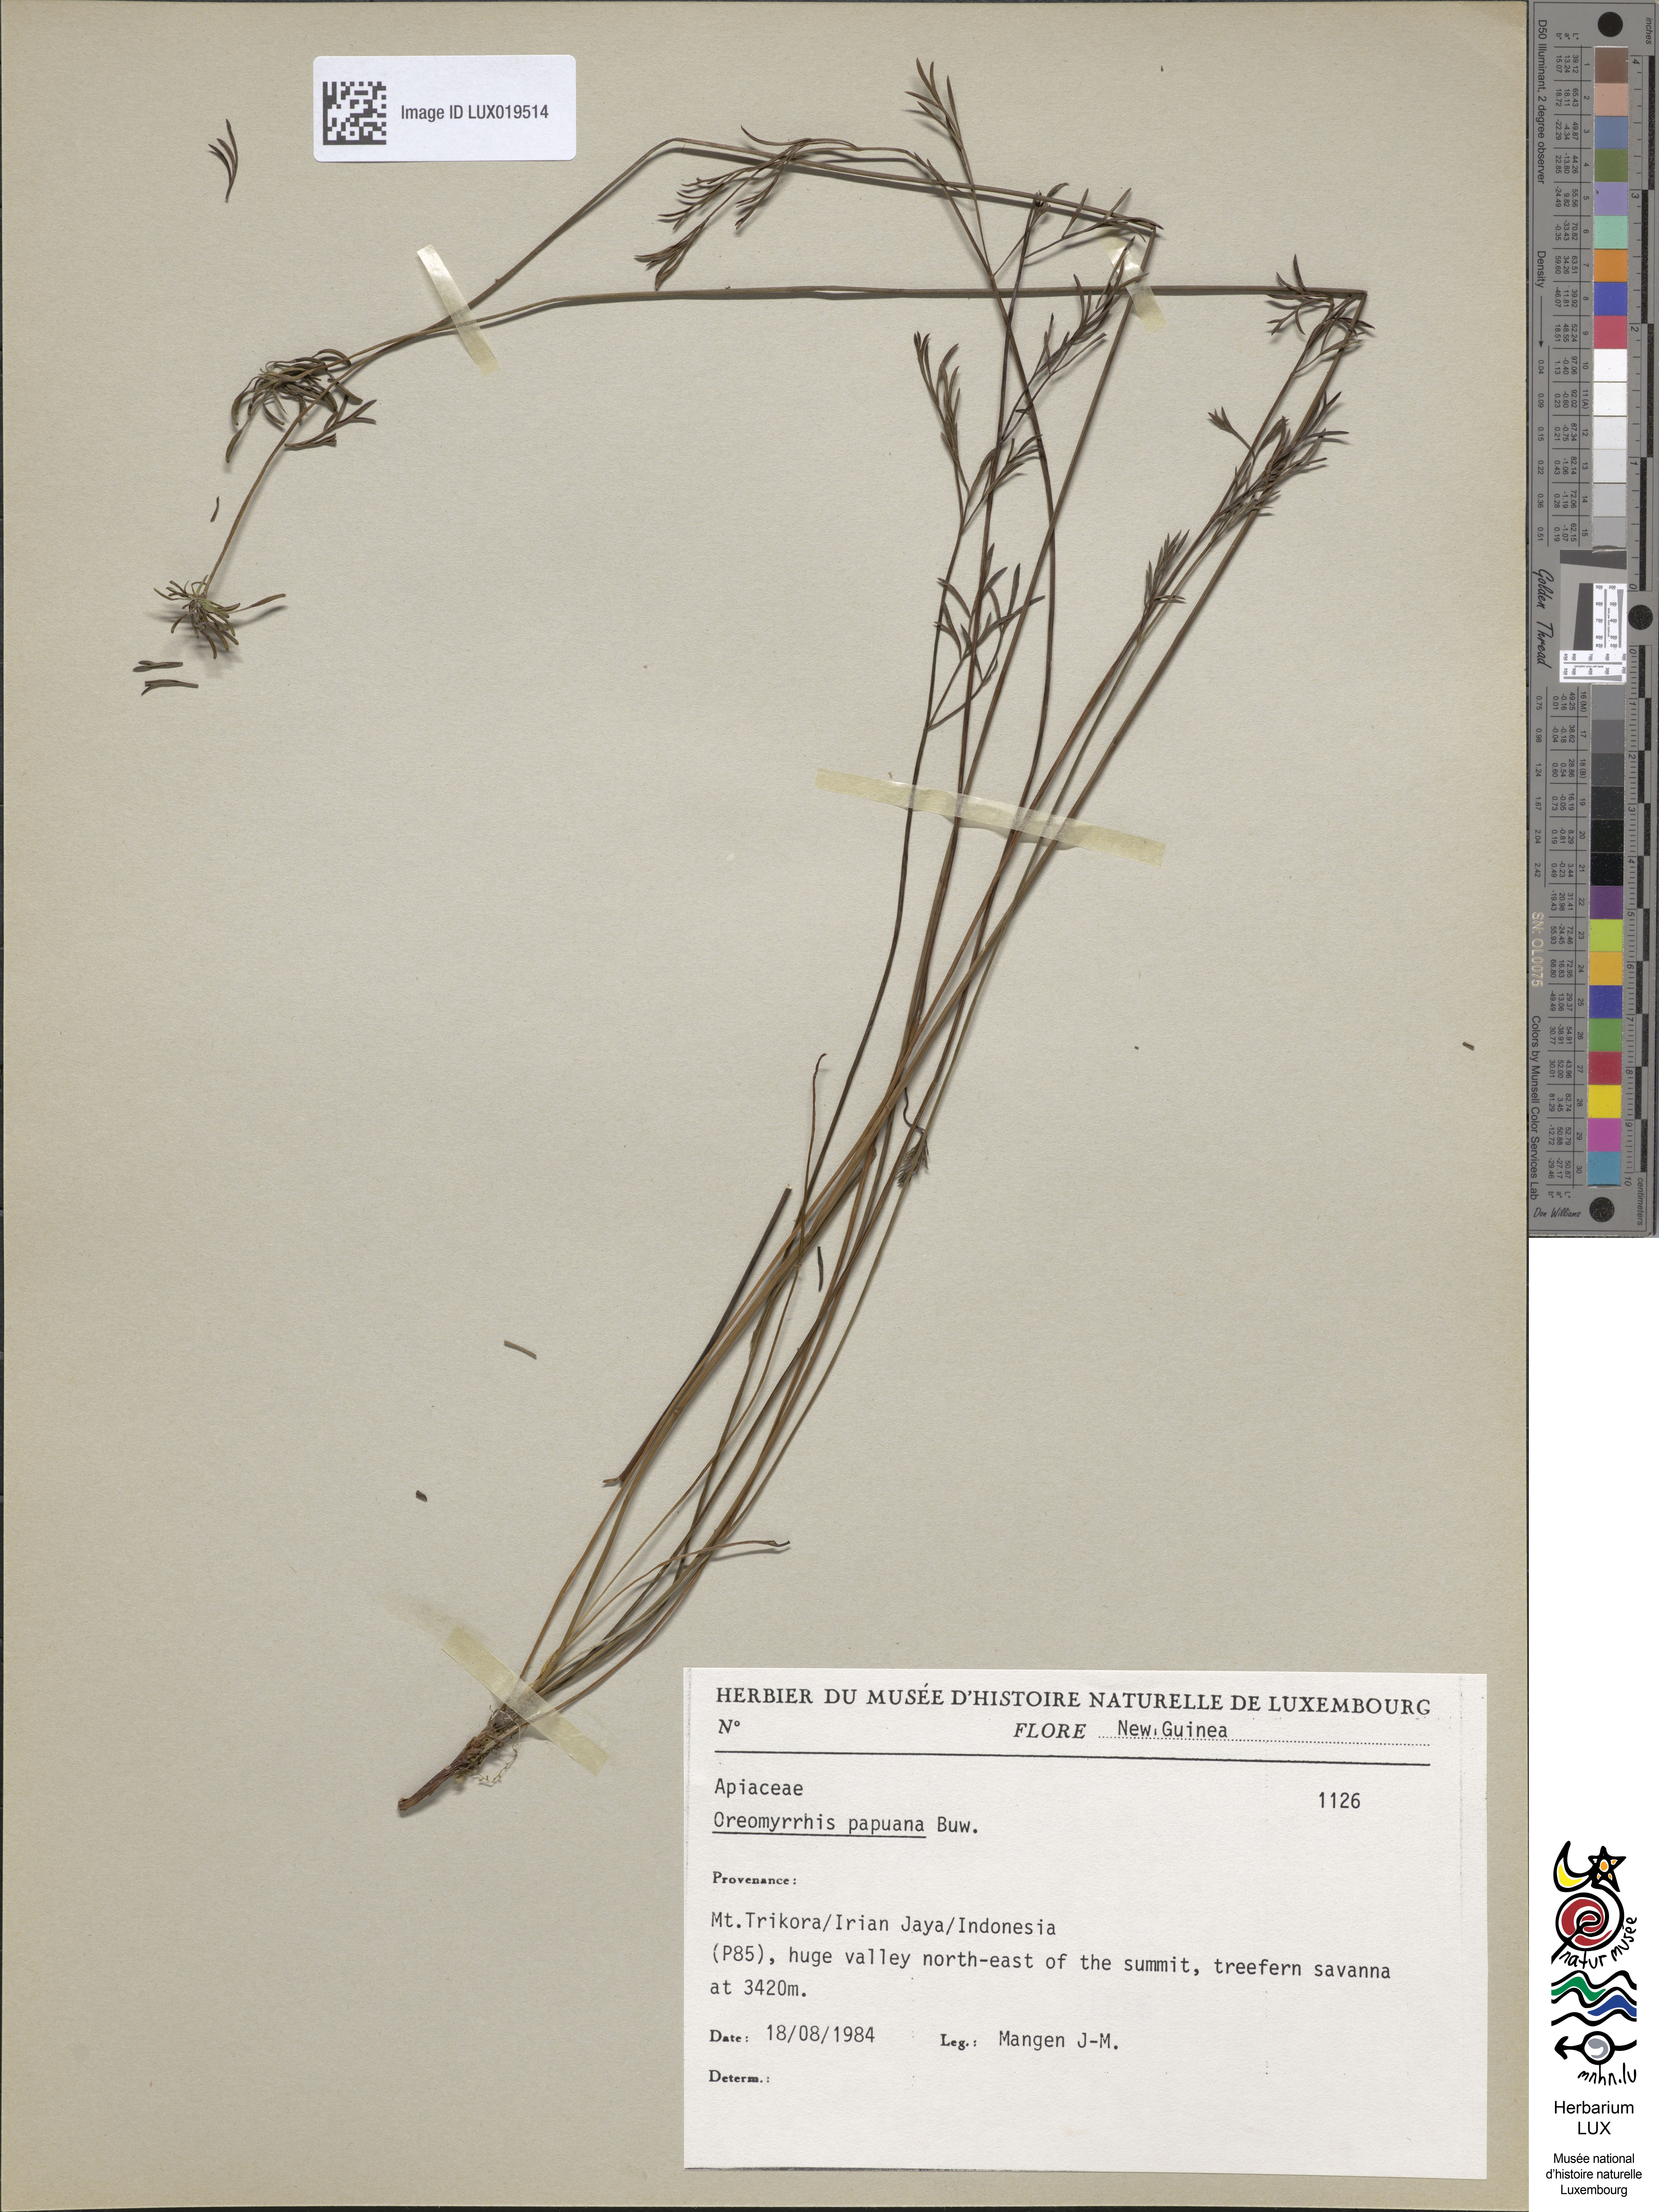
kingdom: Plantae
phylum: Tracheophyta
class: Magnoliopsida
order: Apiales
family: Apiaceae
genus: Chaerophyllum
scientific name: Chaerophyllum papuanum
